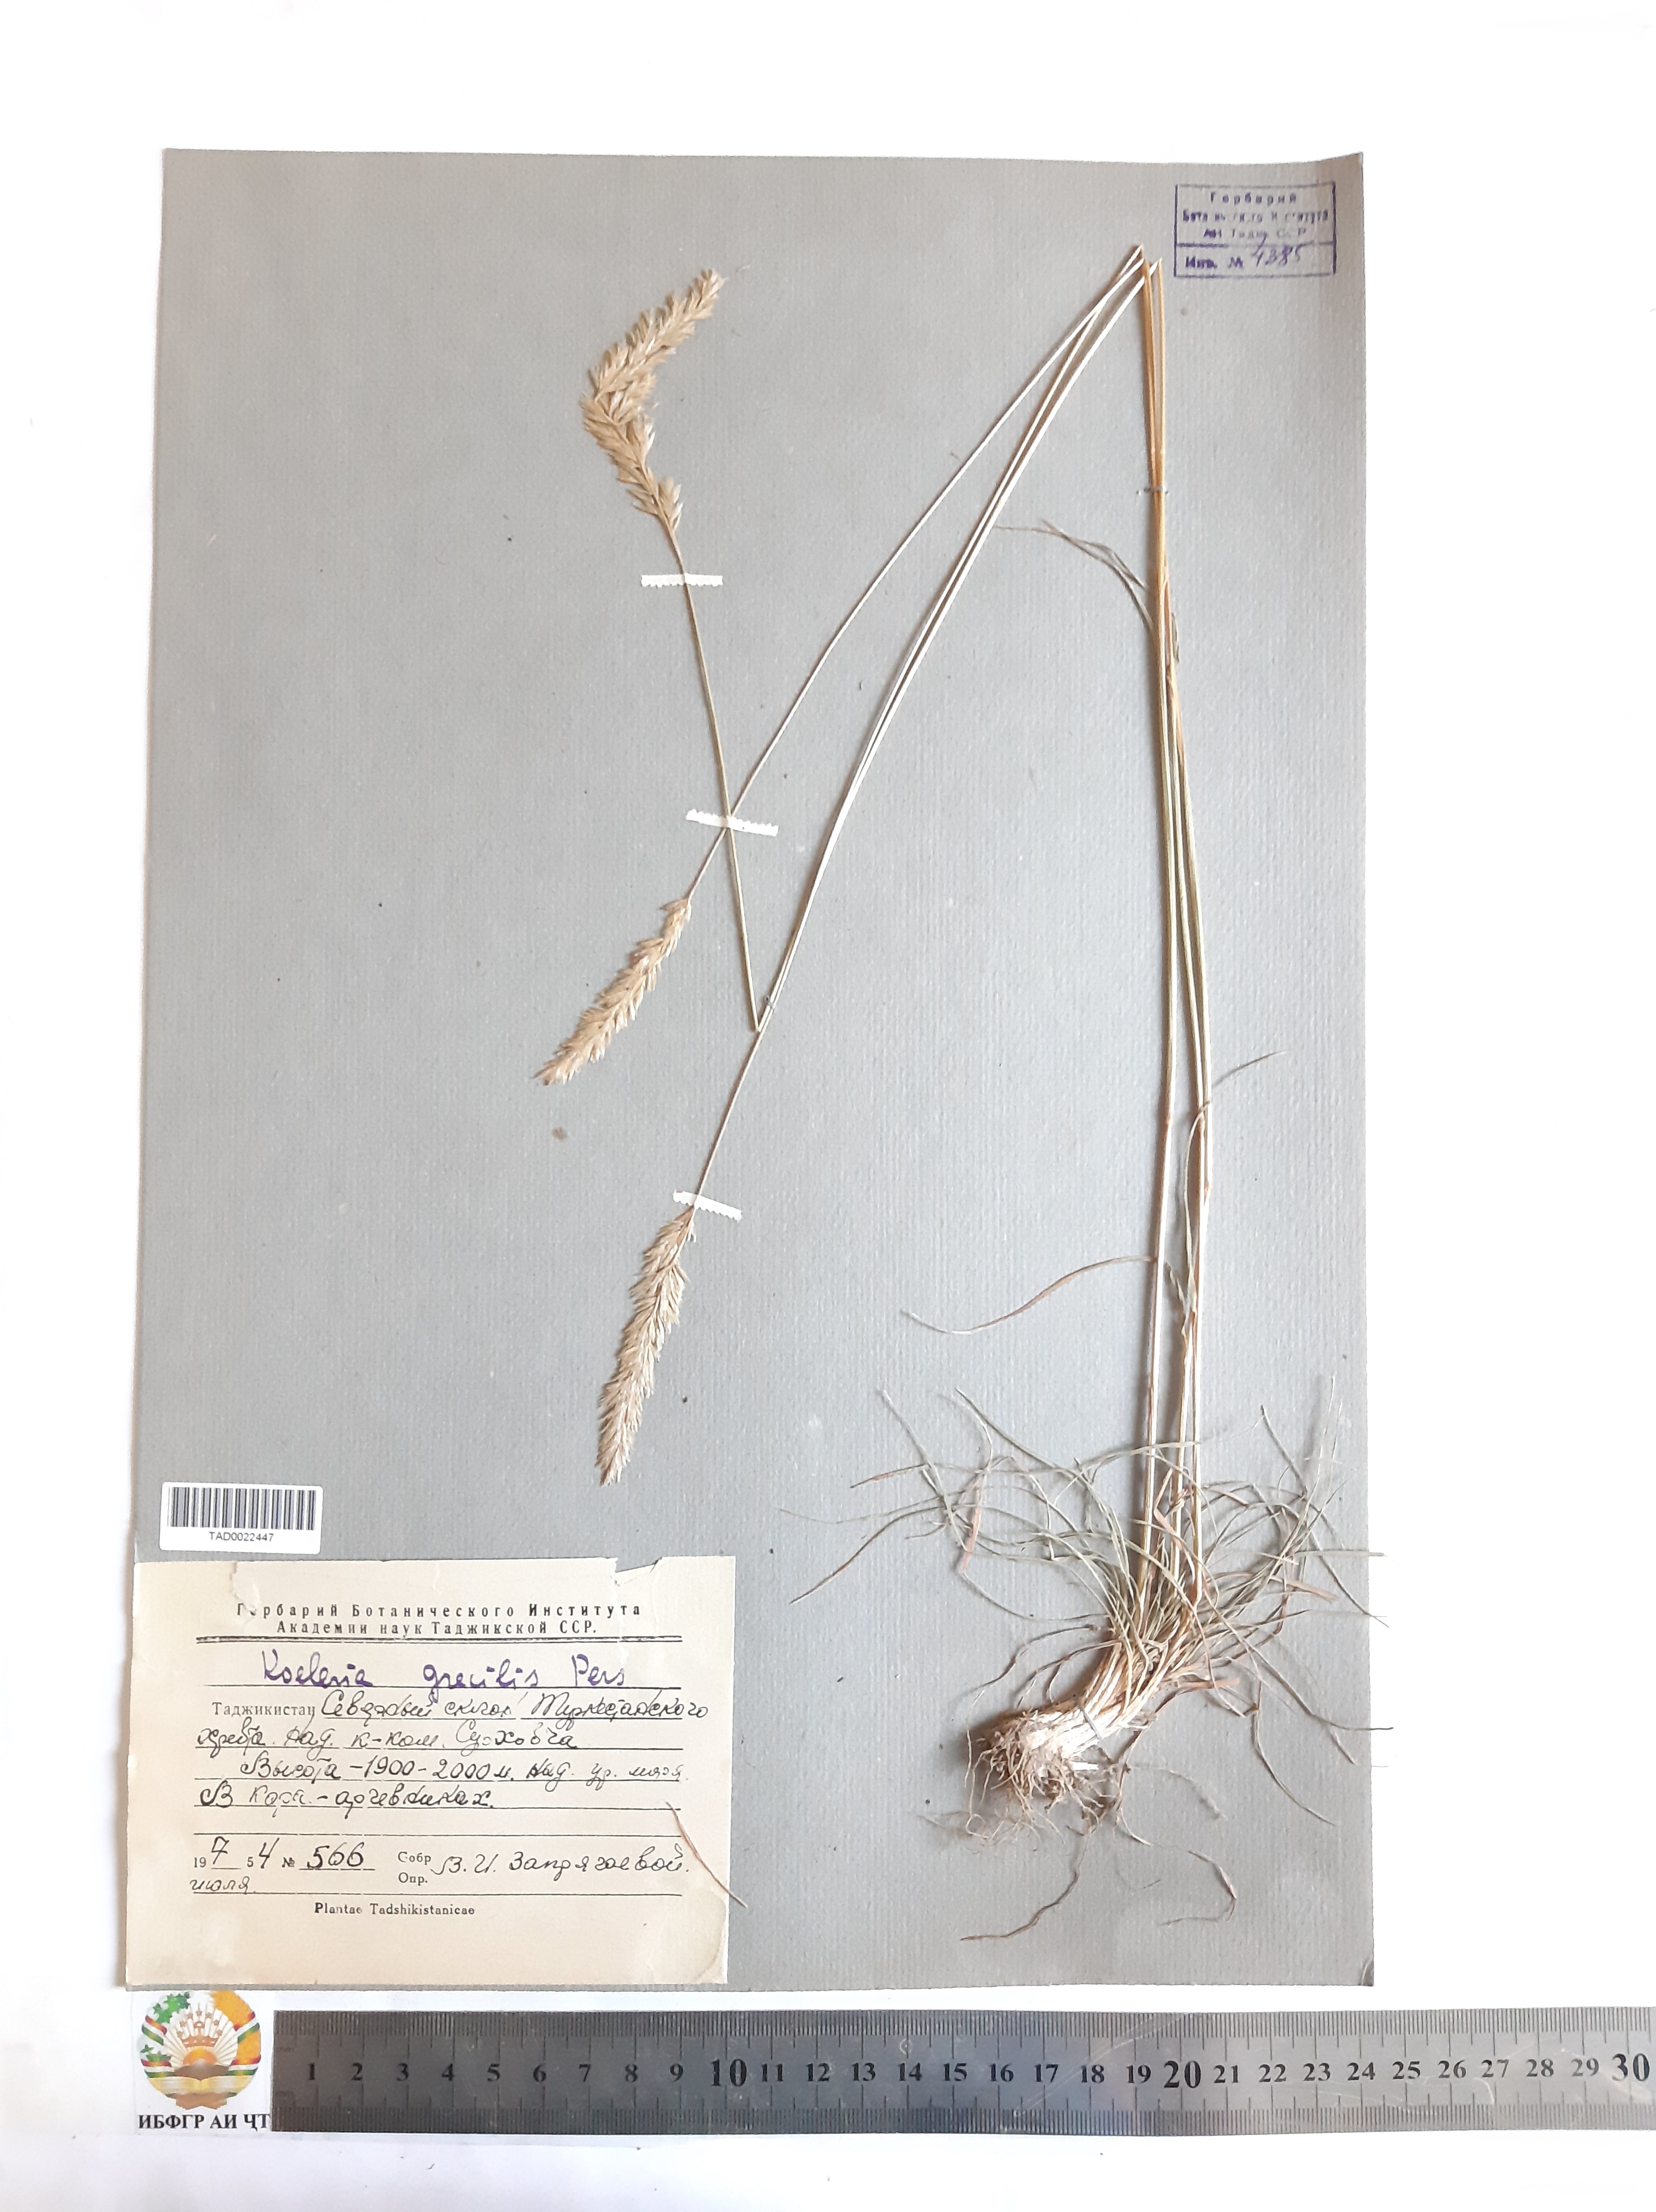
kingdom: Plantae
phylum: Tracheophyta
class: Liliopsida
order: Poales
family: Poaceae
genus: Koeleria
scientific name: Koeleria macrantha
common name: Crested hair-grass
